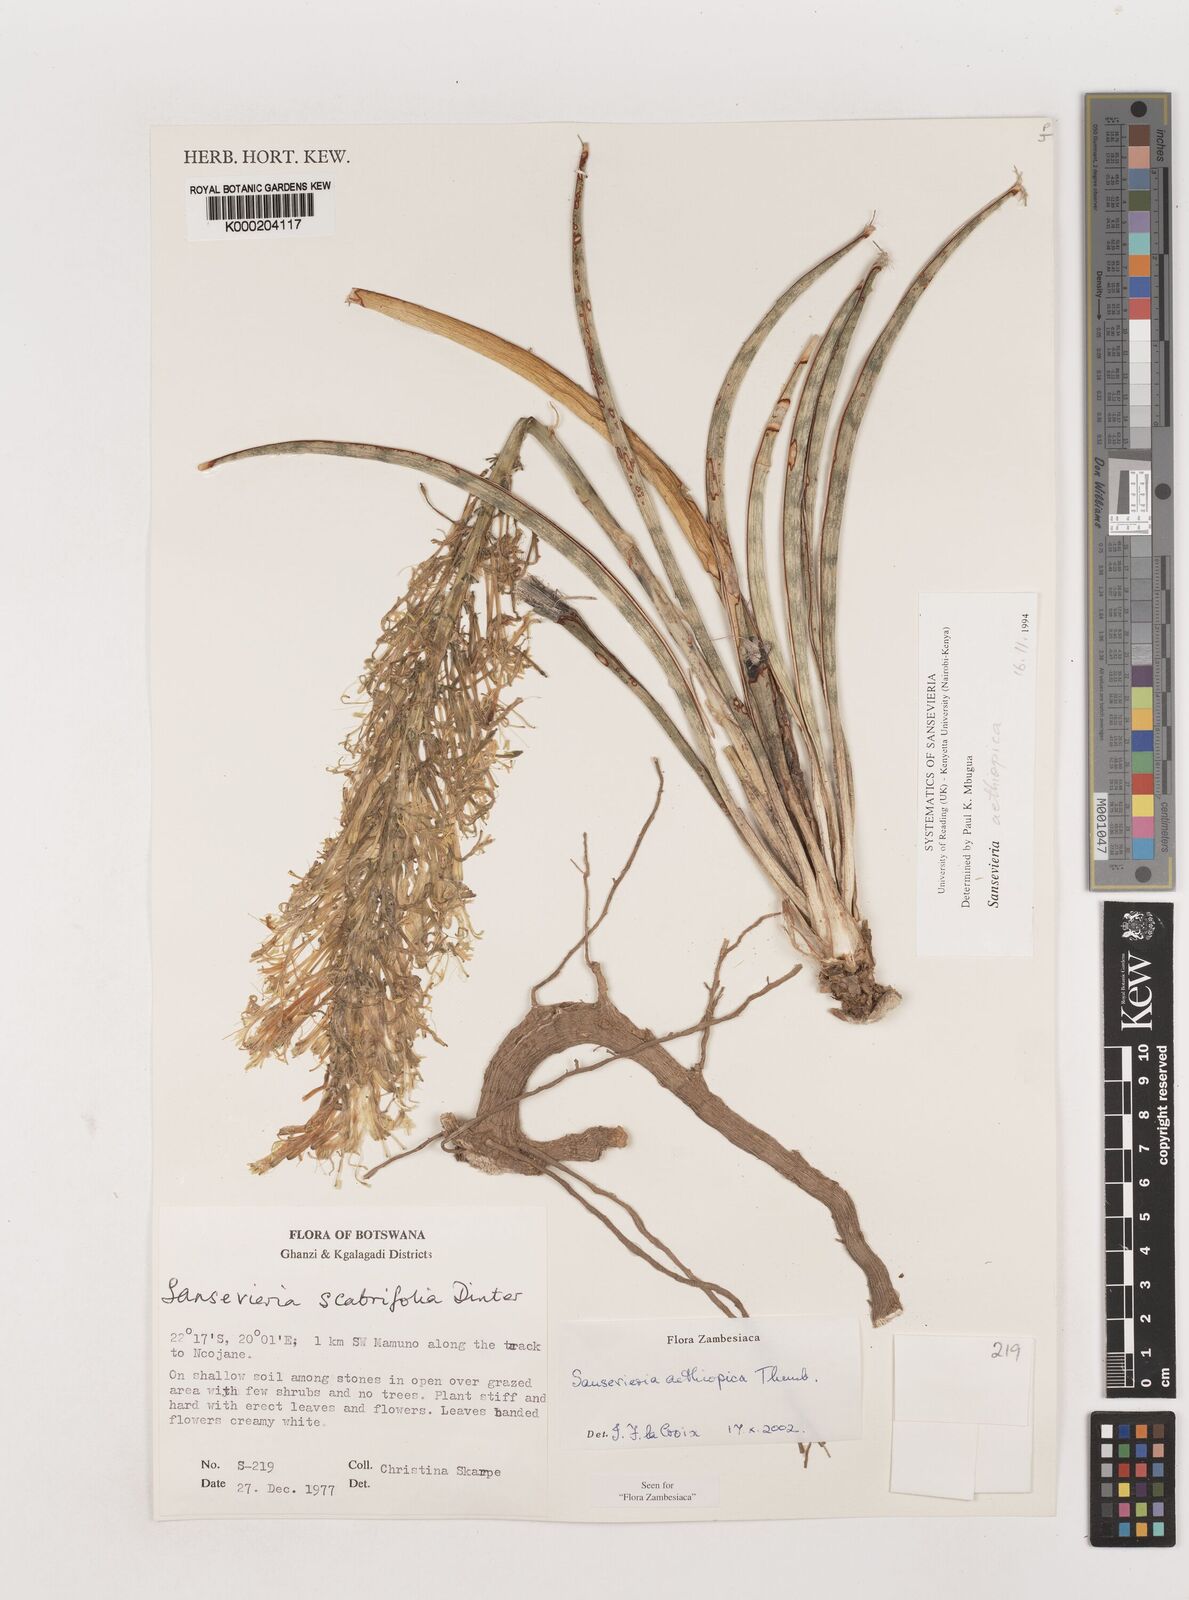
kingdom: Plantae
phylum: Tracheophyta
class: Liliopsida
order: Asparagales
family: Asparagaceae
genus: Dracaena
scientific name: Dracaena aethiopica
